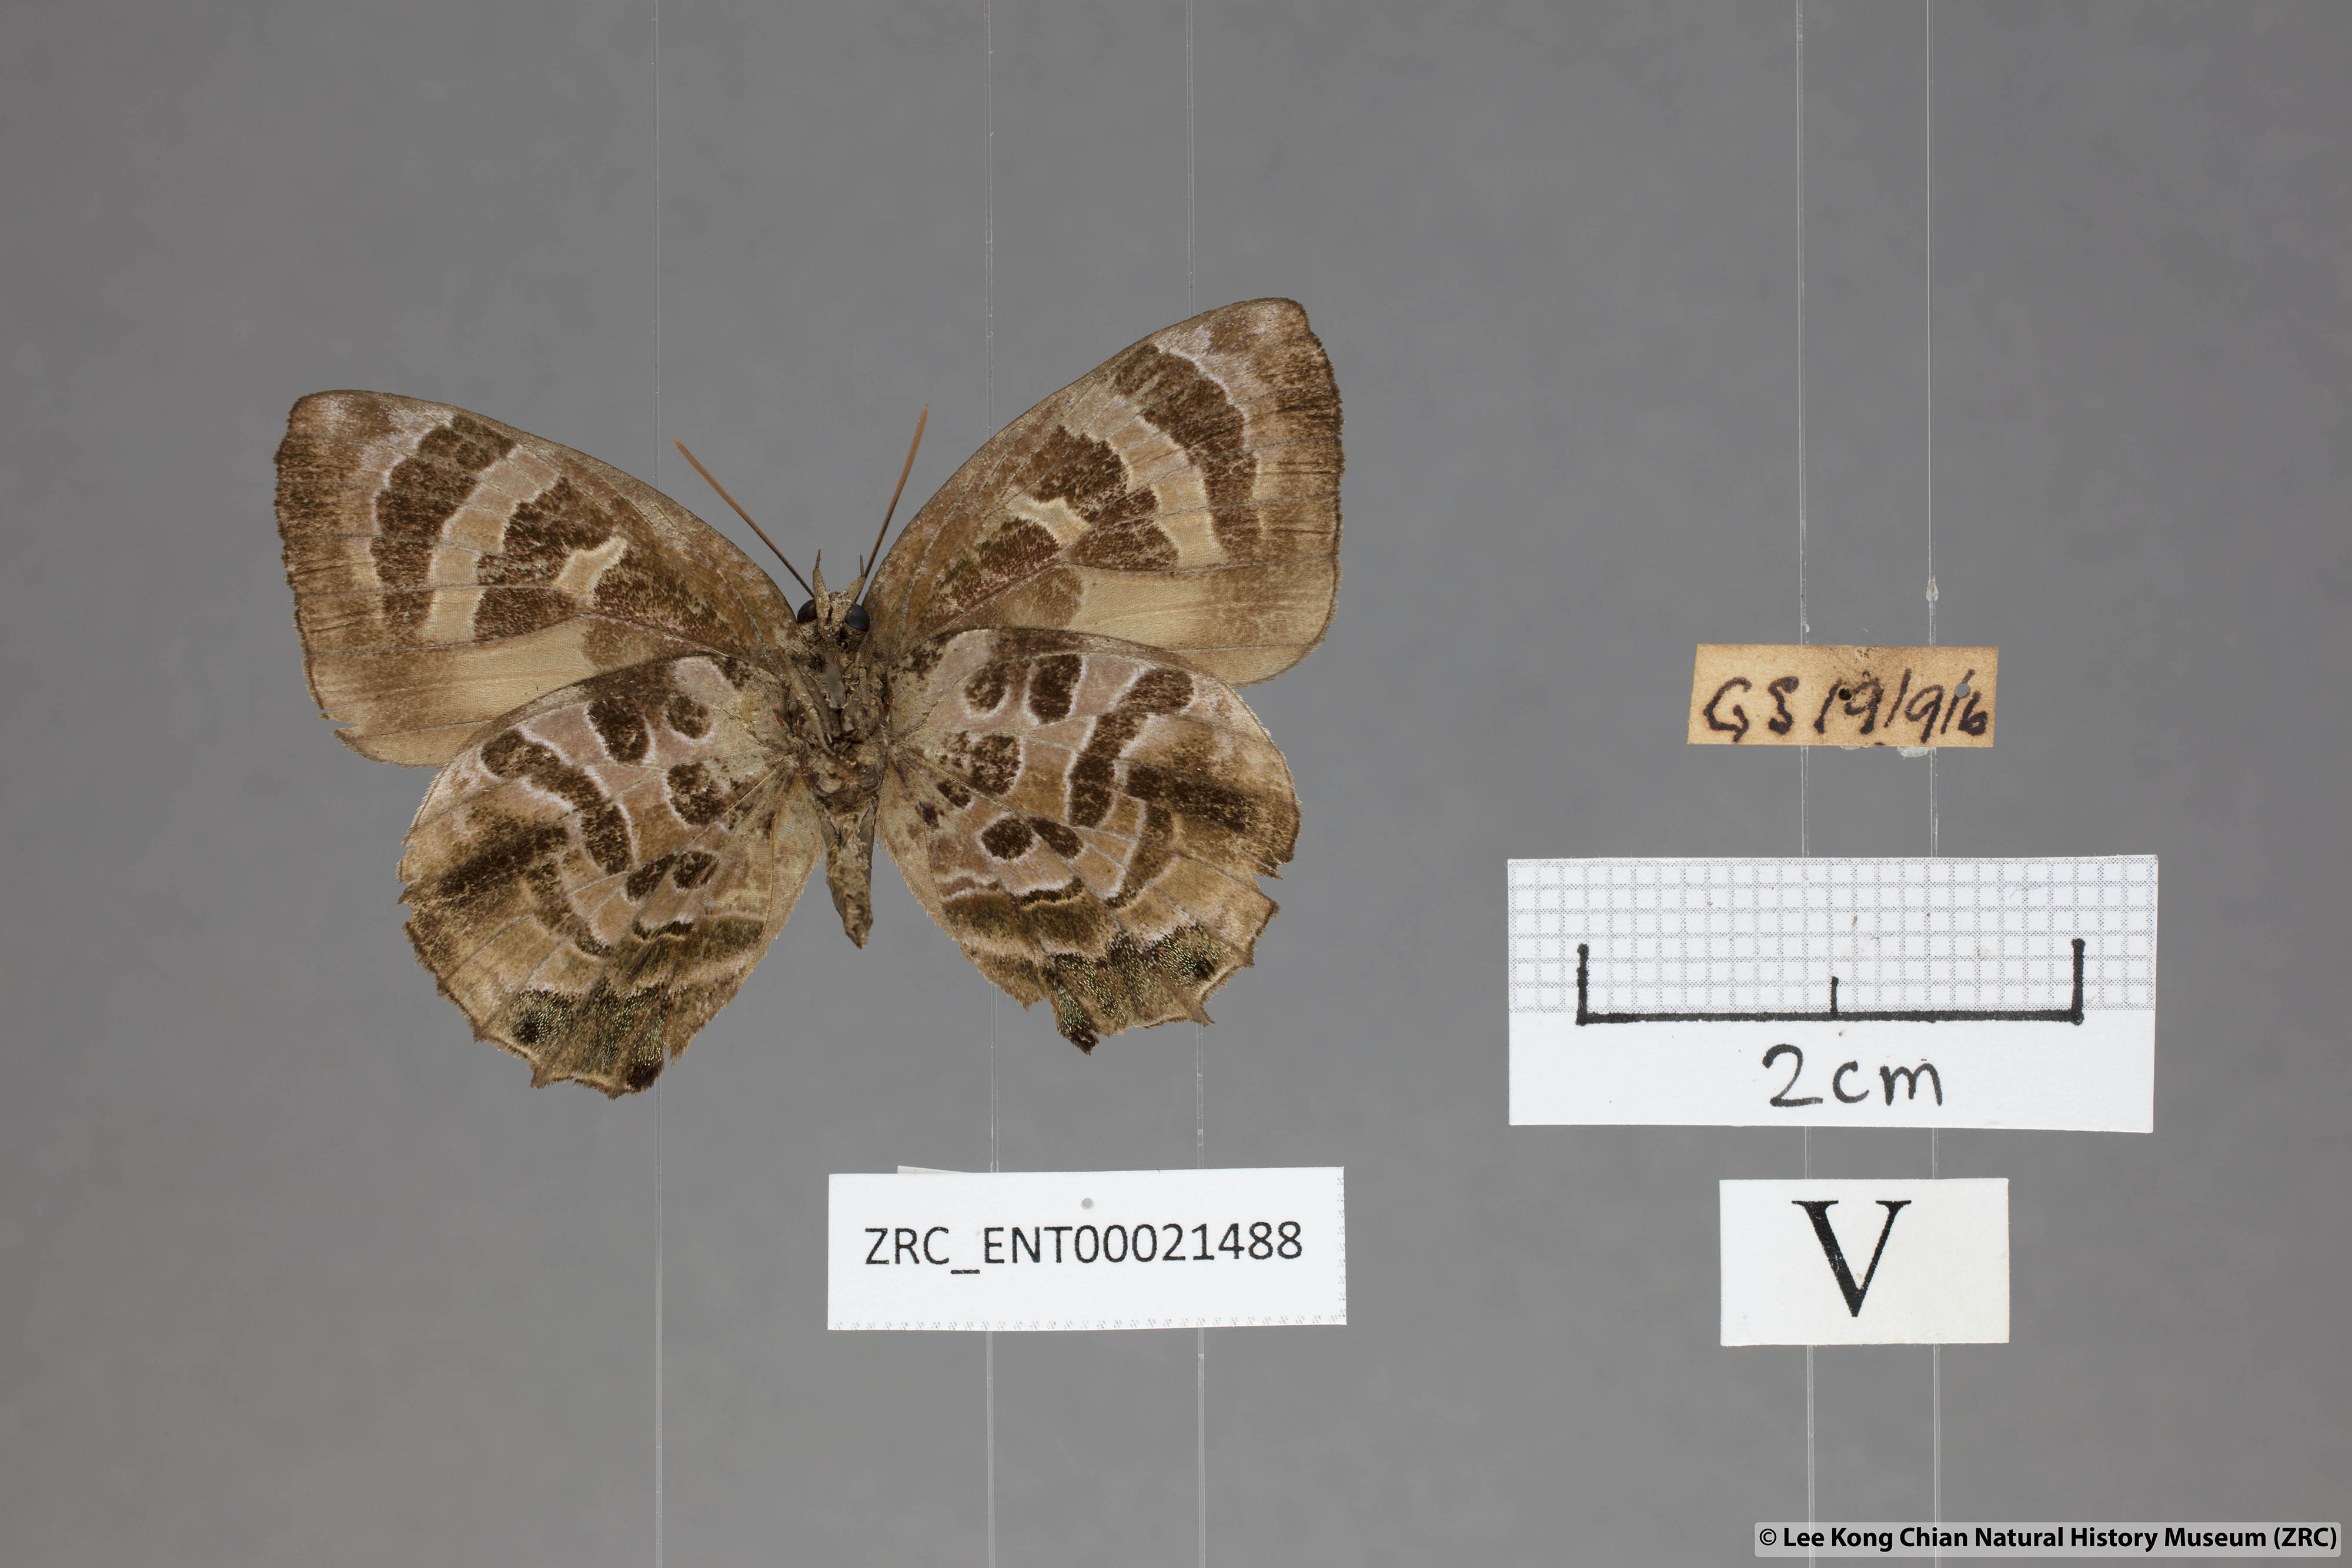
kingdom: Animalia
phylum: Arthropoda
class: Insecta
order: Lepidoptera
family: Lycaenidae
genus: Flos
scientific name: Flos
